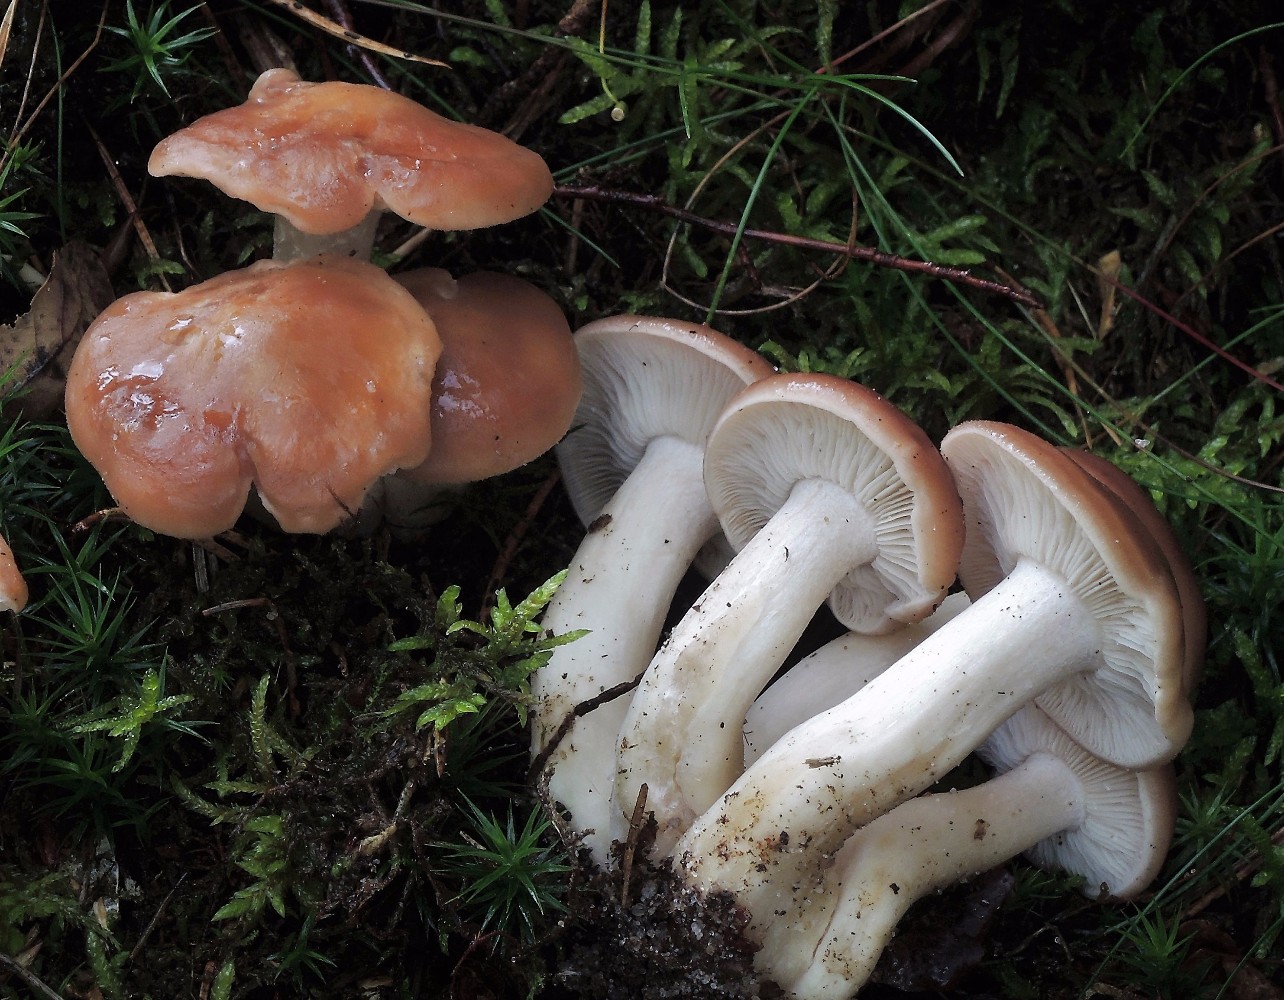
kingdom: Fungi
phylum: Basidiomycota
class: Agaricomycetes
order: Agaricales
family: Lyophyllaceae
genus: Gerhardtia
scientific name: Gerhardtia borealis
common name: rosabrun fagerhat
